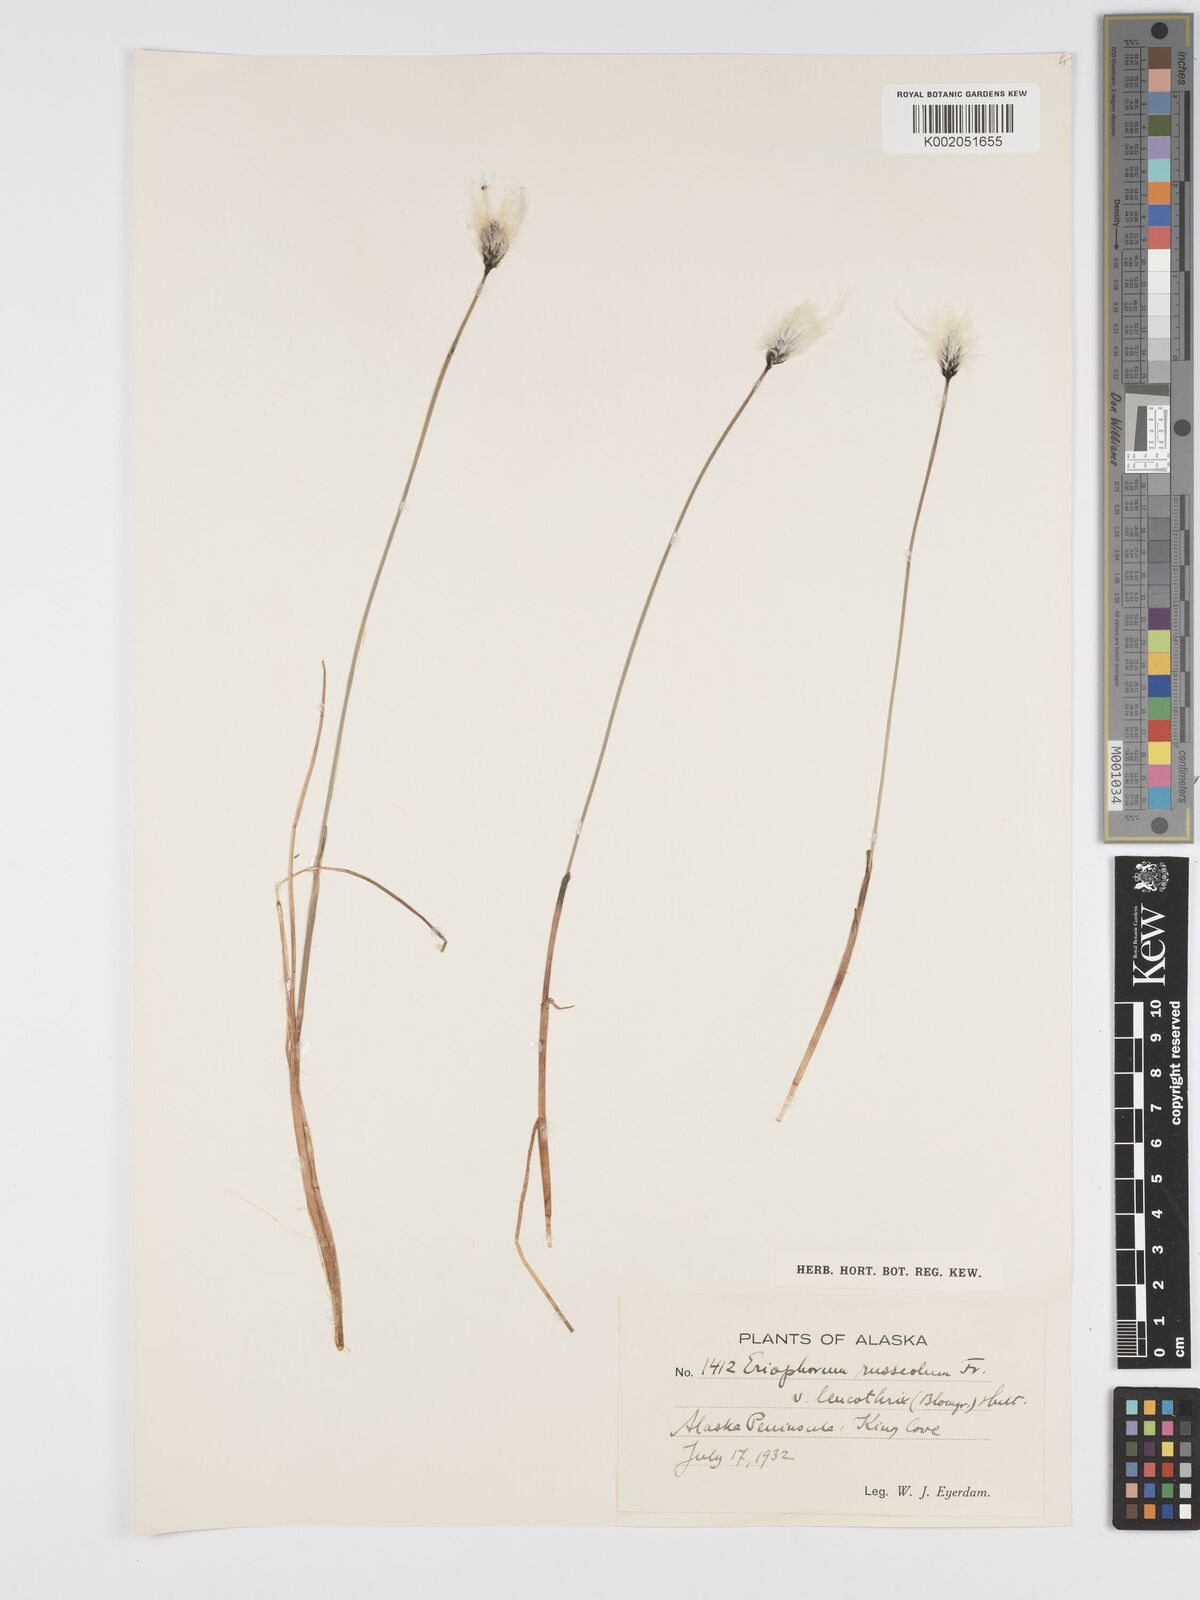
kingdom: Plantae
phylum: Tracheophyta
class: Liliopsida
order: Poales
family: Cyperaceae
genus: Eriophorum
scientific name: Eriophorum chamissonis
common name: Chamisso's cottongrass
